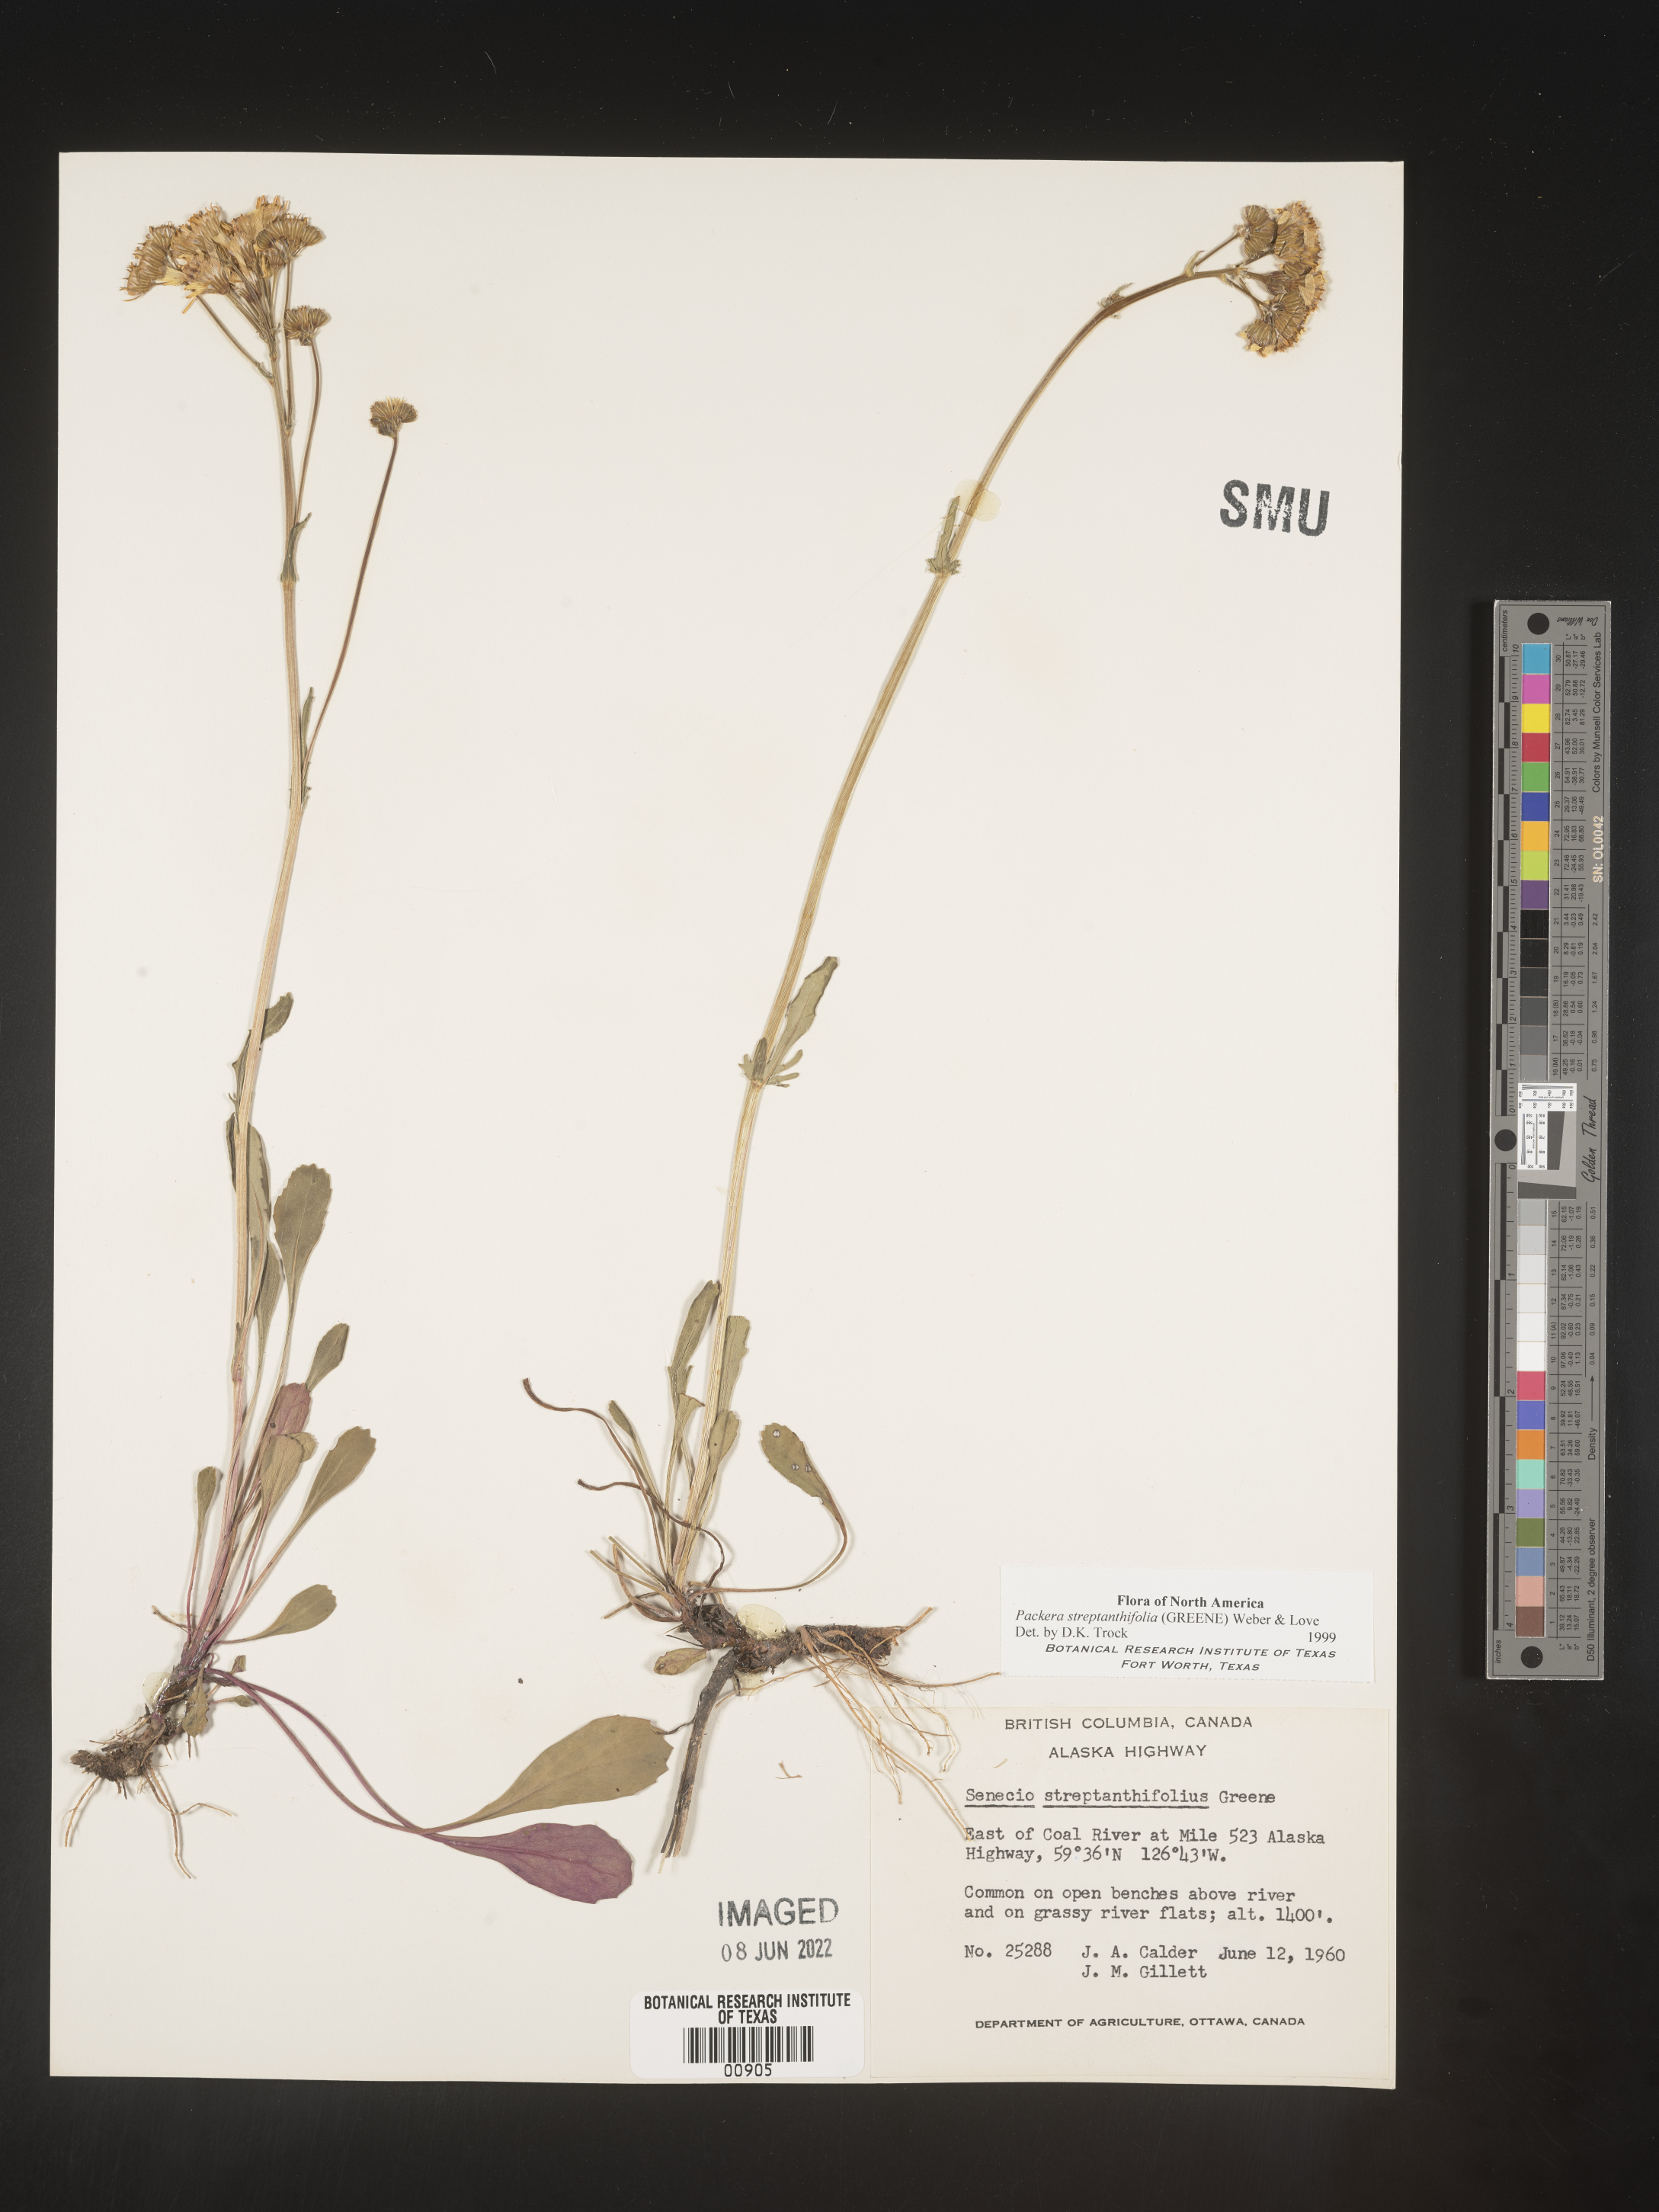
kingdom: Plantae
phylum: Tracheophyta
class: Magnoliopsida
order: Asterales
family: Asteraceae
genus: Packera
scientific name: Packera streptanthifolia
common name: Rocky mountain butterweed
